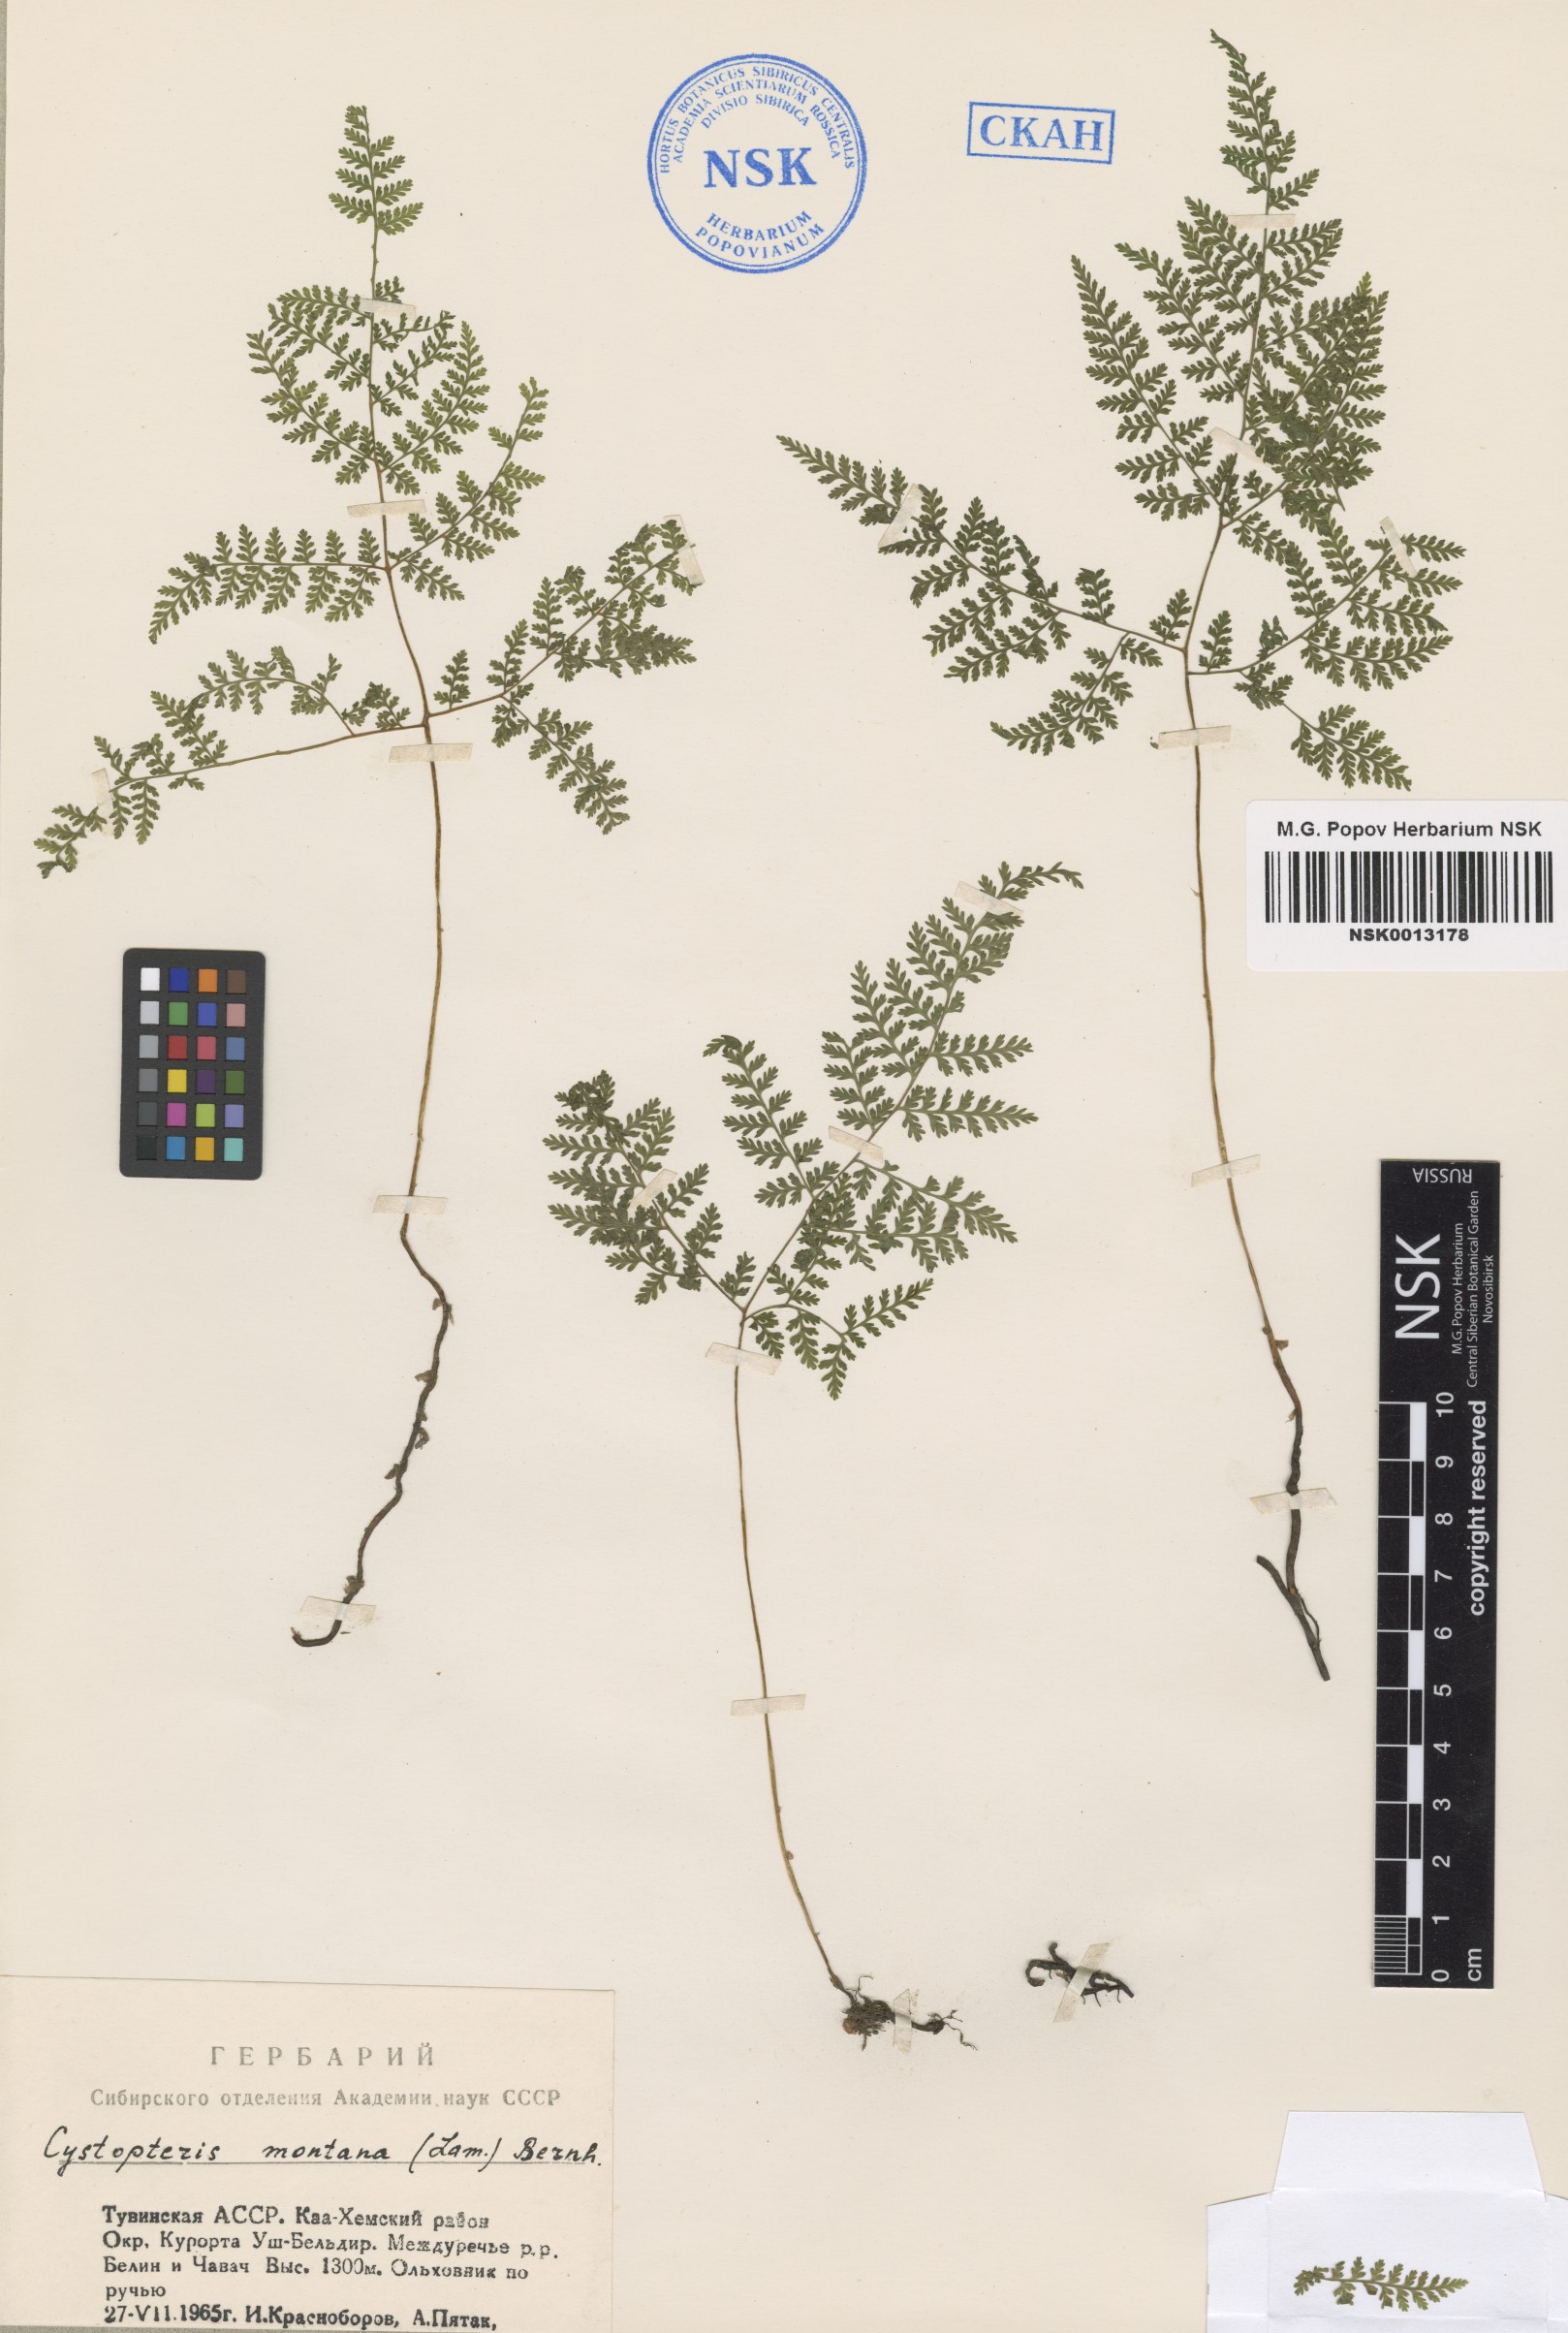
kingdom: Plantae
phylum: Tracheophyta
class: Polypodiopsida
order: Polypodiales
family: Cystopteridaceae
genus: Cystopteris
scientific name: Cystopteris montana
